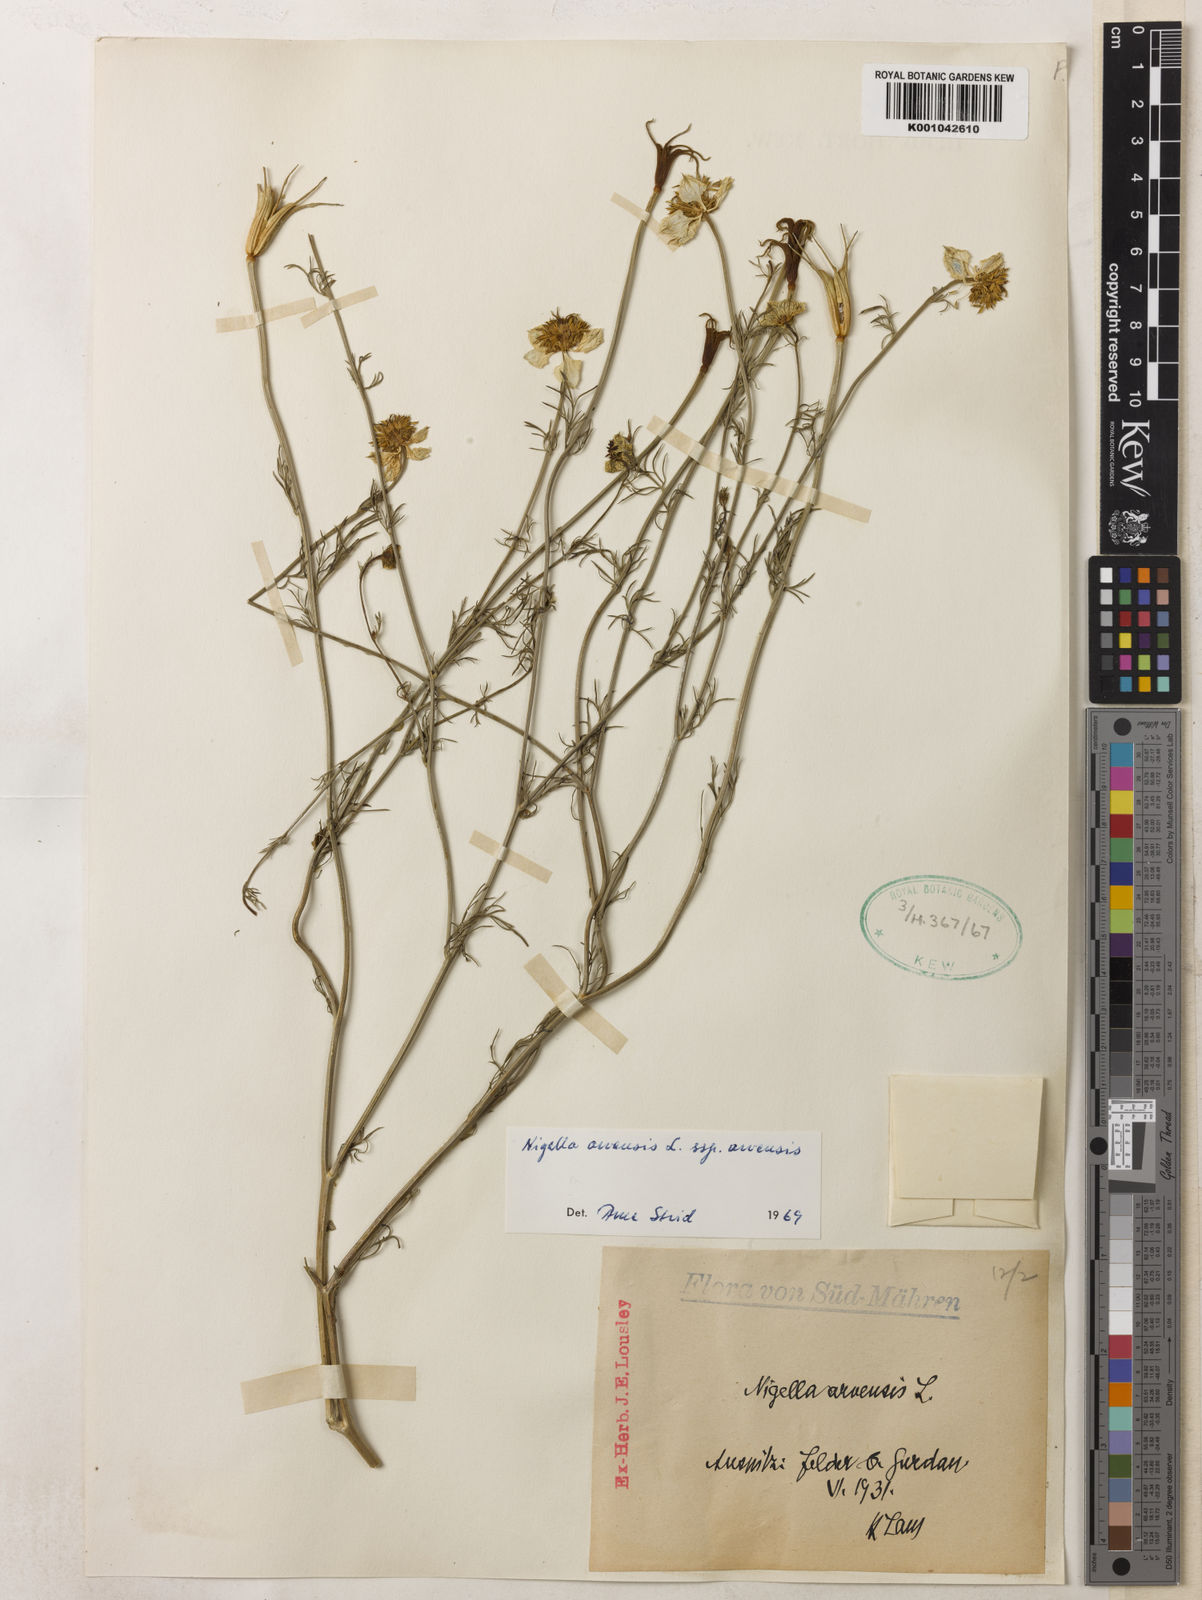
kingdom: Plantae
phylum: Tracheophyta
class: Magnoliopsida
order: Ranunculales
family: Ranunculaceae
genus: Nigella
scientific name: Nigella arvensis
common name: Wild fennel-flower
